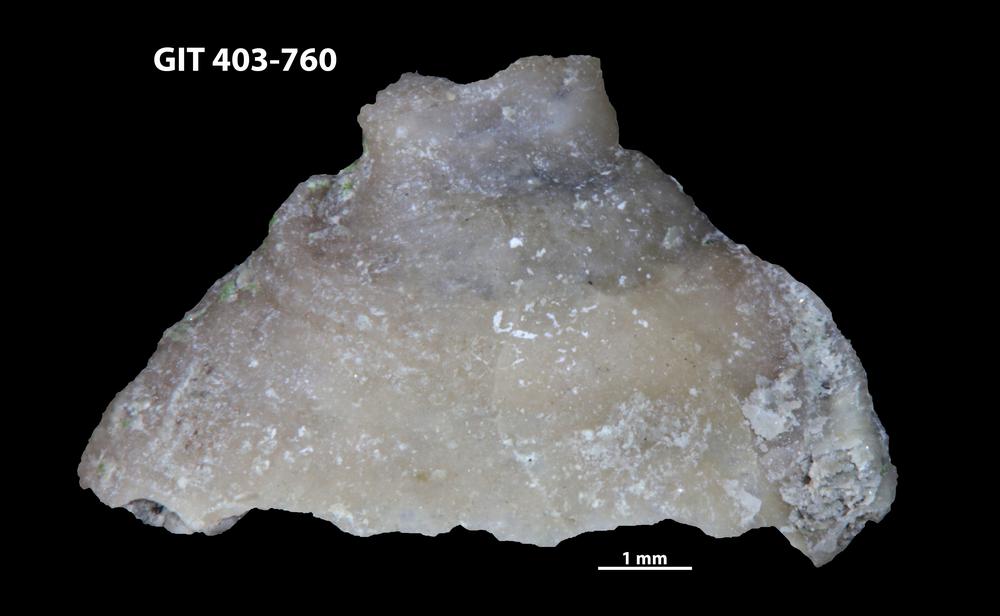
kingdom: Animalia
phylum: Mollusca
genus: Anticalyptraea
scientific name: Anticalyptraea westergaardi
